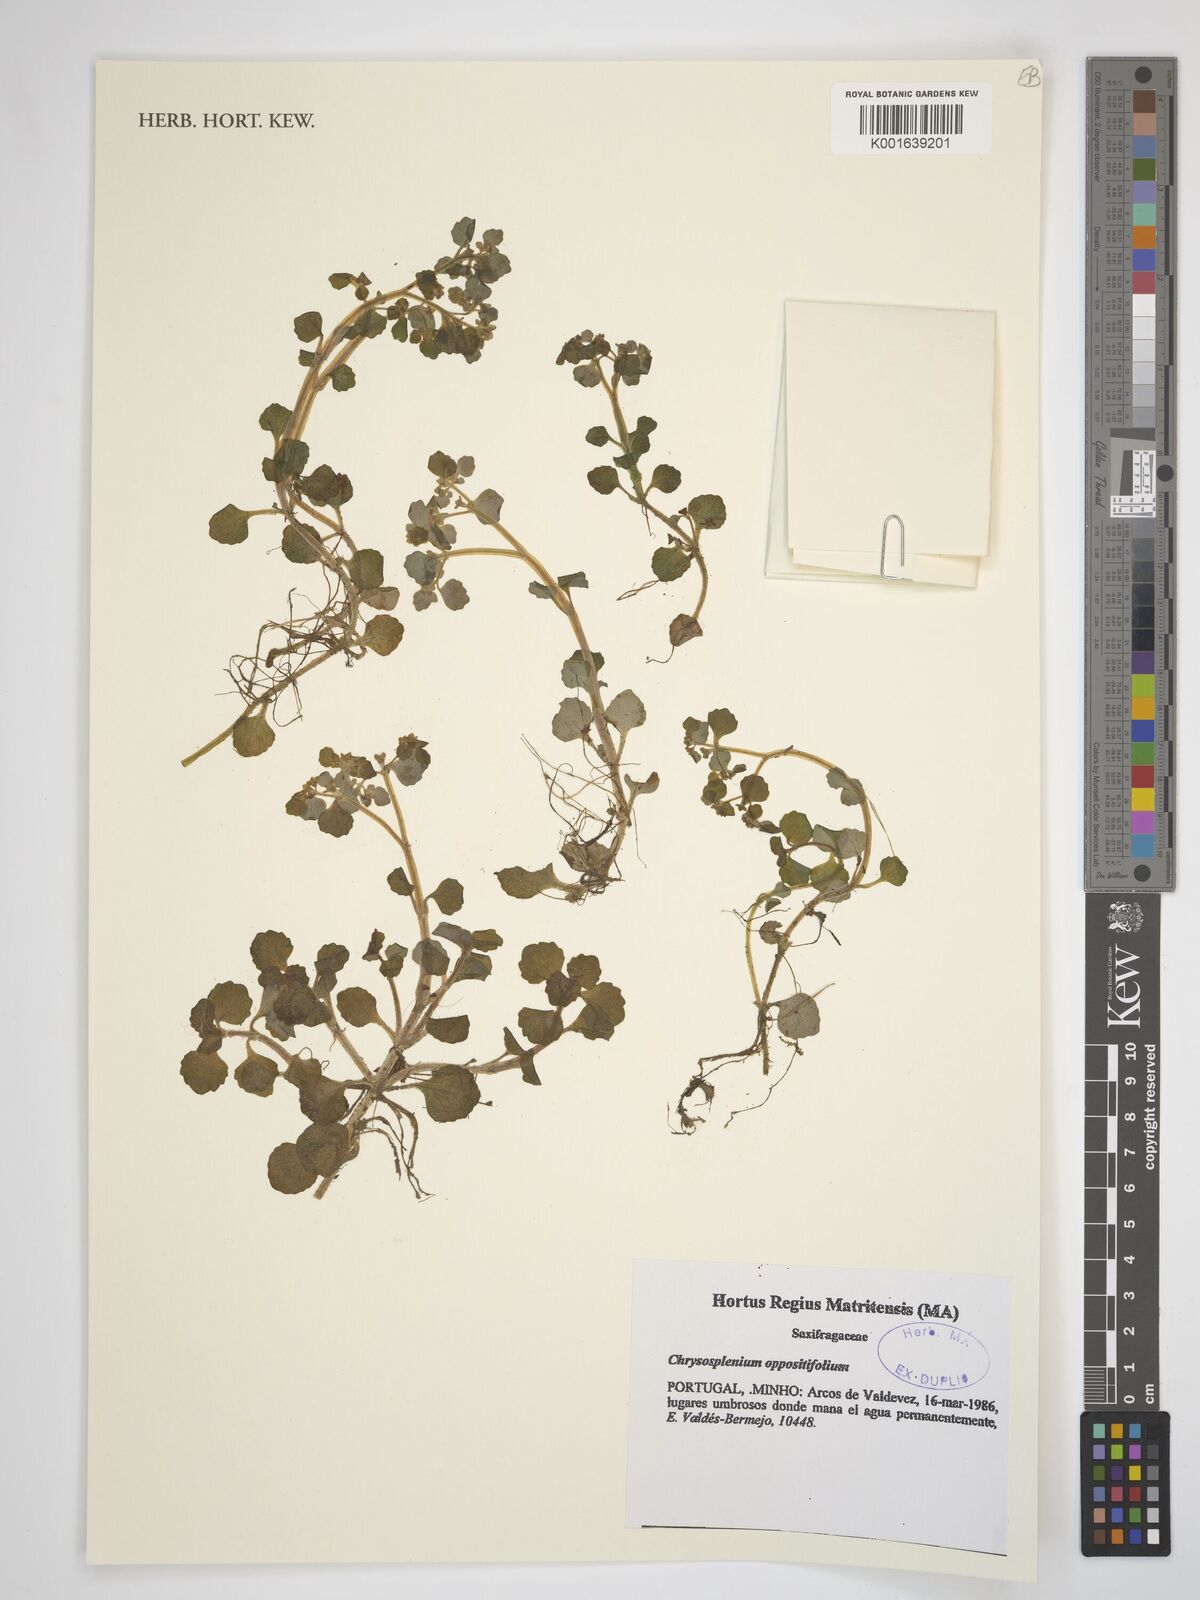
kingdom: Plantae
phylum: Tracheophyta
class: Magnoliopsida
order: Saxifragales
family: Saxifragaceae
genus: Chrysosplenium
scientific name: Chrysosplenium oppositifolium
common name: Opposite-leaved golden-saxifrage
